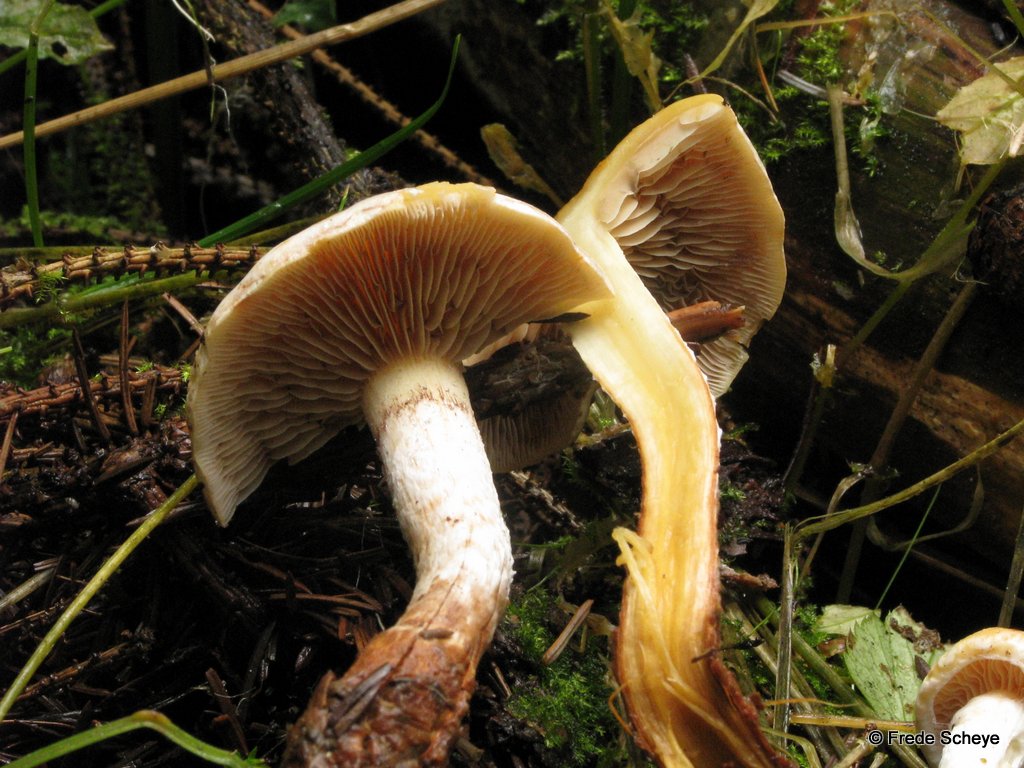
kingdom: Fungi
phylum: Basidiomycota
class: Agaricomycetes
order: Agaricales
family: Strophariaceae
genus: Kuehneromyces
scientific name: Kuehneromyces mutabilis
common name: foranderlig skælhat
